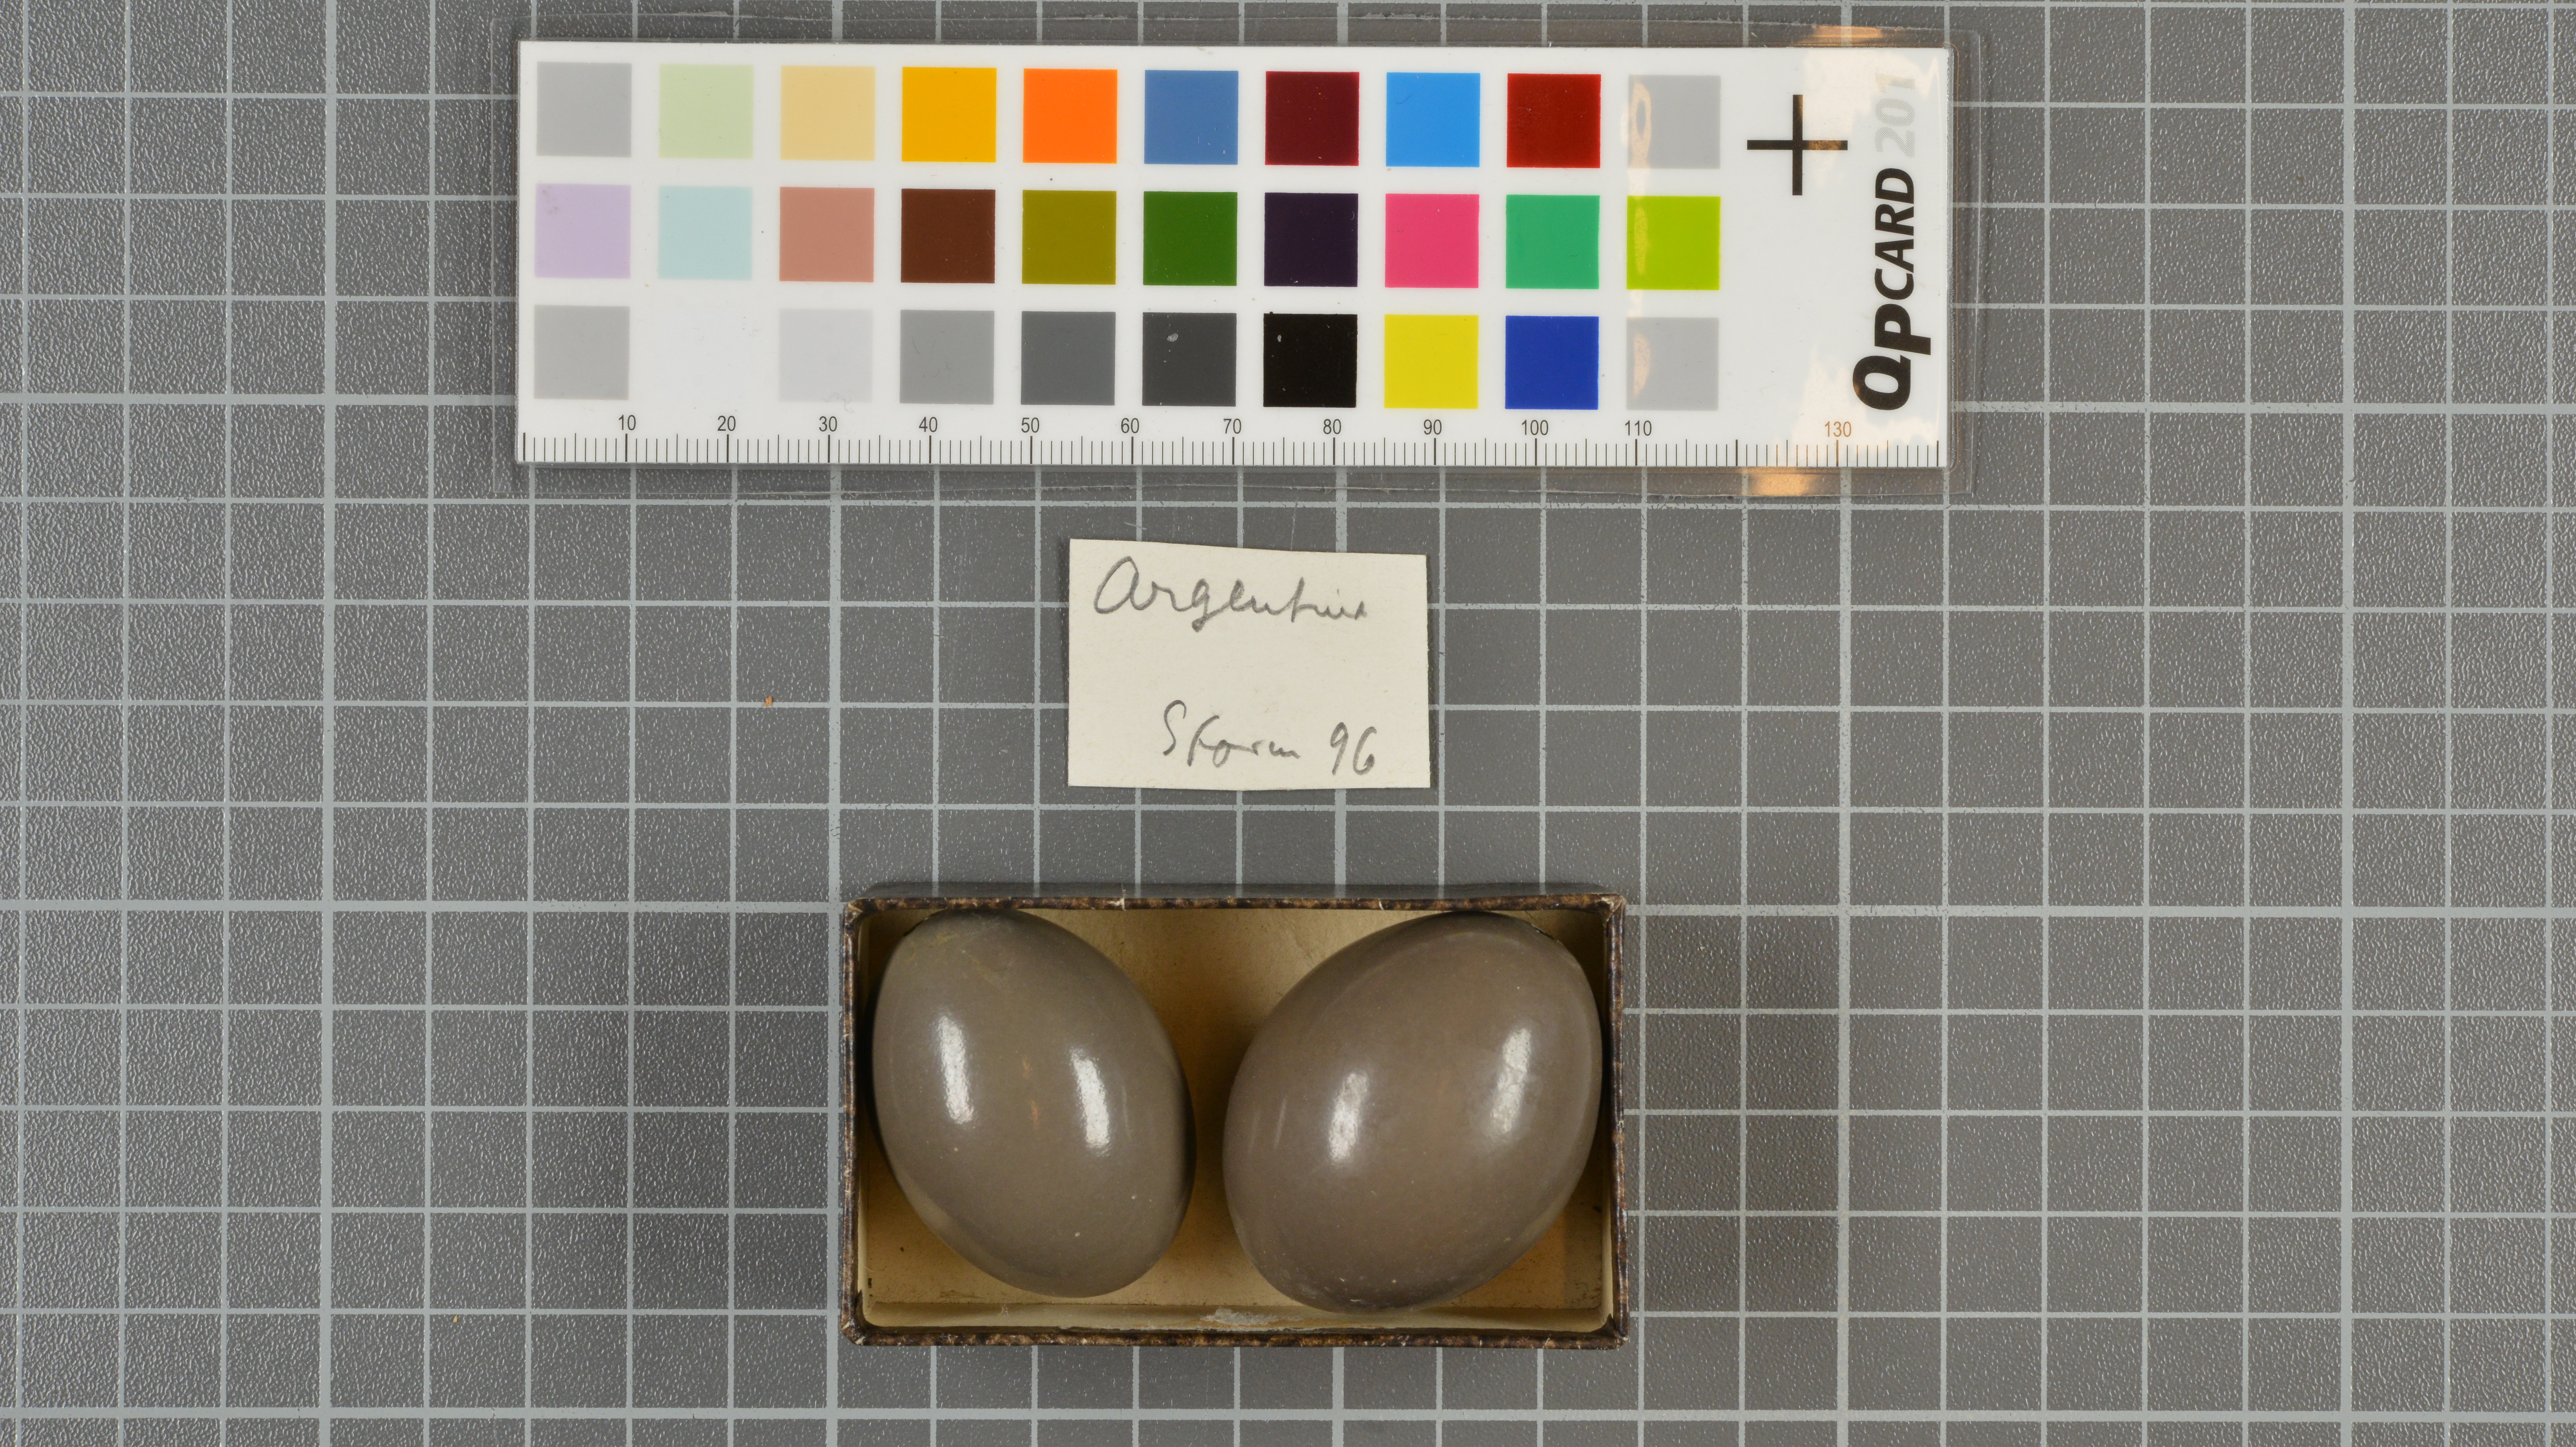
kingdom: Animalia
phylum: Chordata
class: Aves
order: Tinamiformes
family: Tinamidae
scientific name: Tinamidae
